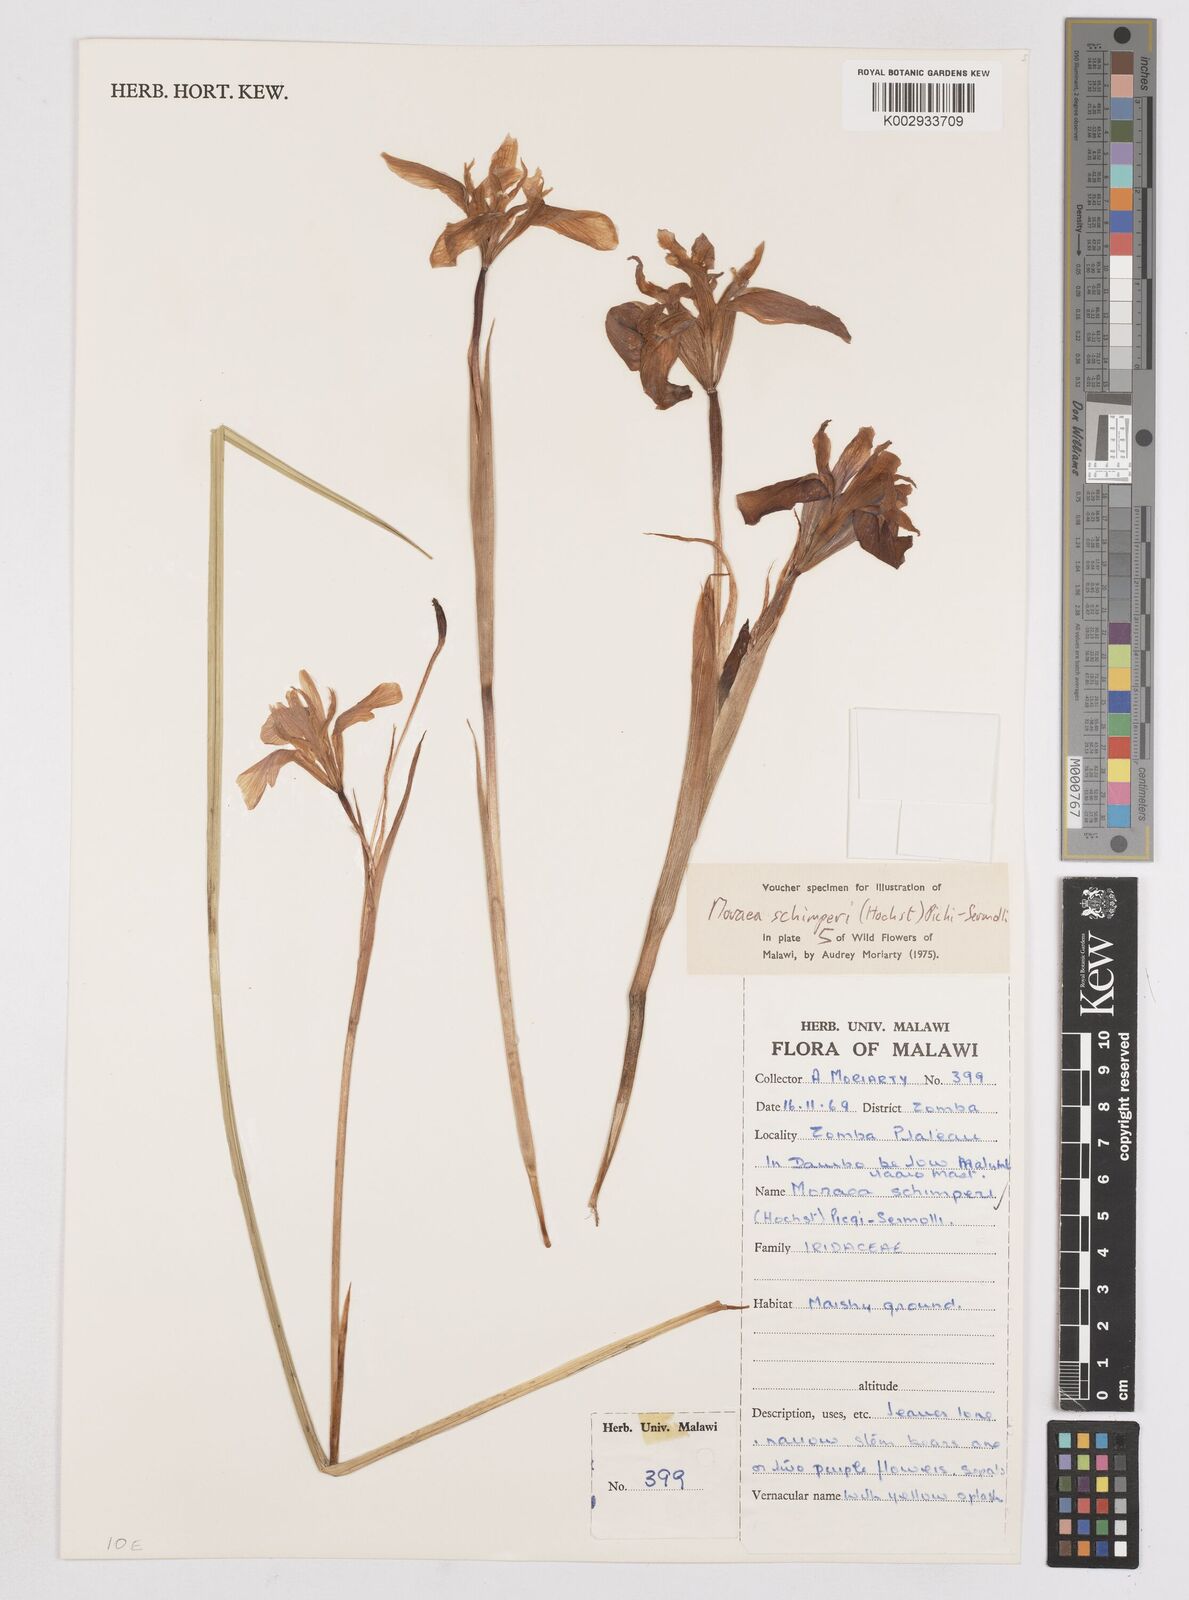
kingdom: Plantae
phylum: Tracheophyta
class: Liliopsida
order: Asparagales
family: Iridaceae
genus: Moraea
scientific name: Moraea schimperi
